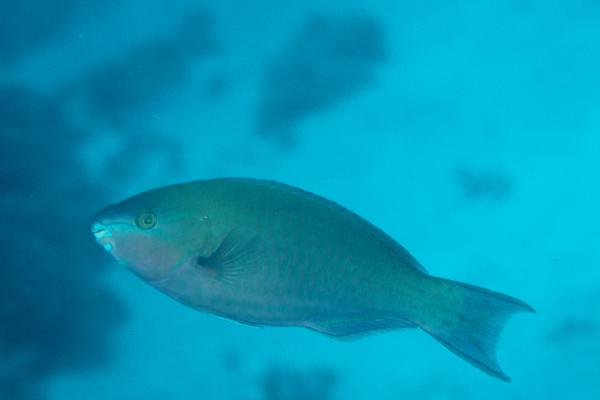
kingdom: Animalia
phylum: Chordata
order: Perciformes
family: Scaridae
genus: Scarus
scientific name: Scarus psittacus
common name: Palenose parrotfish
